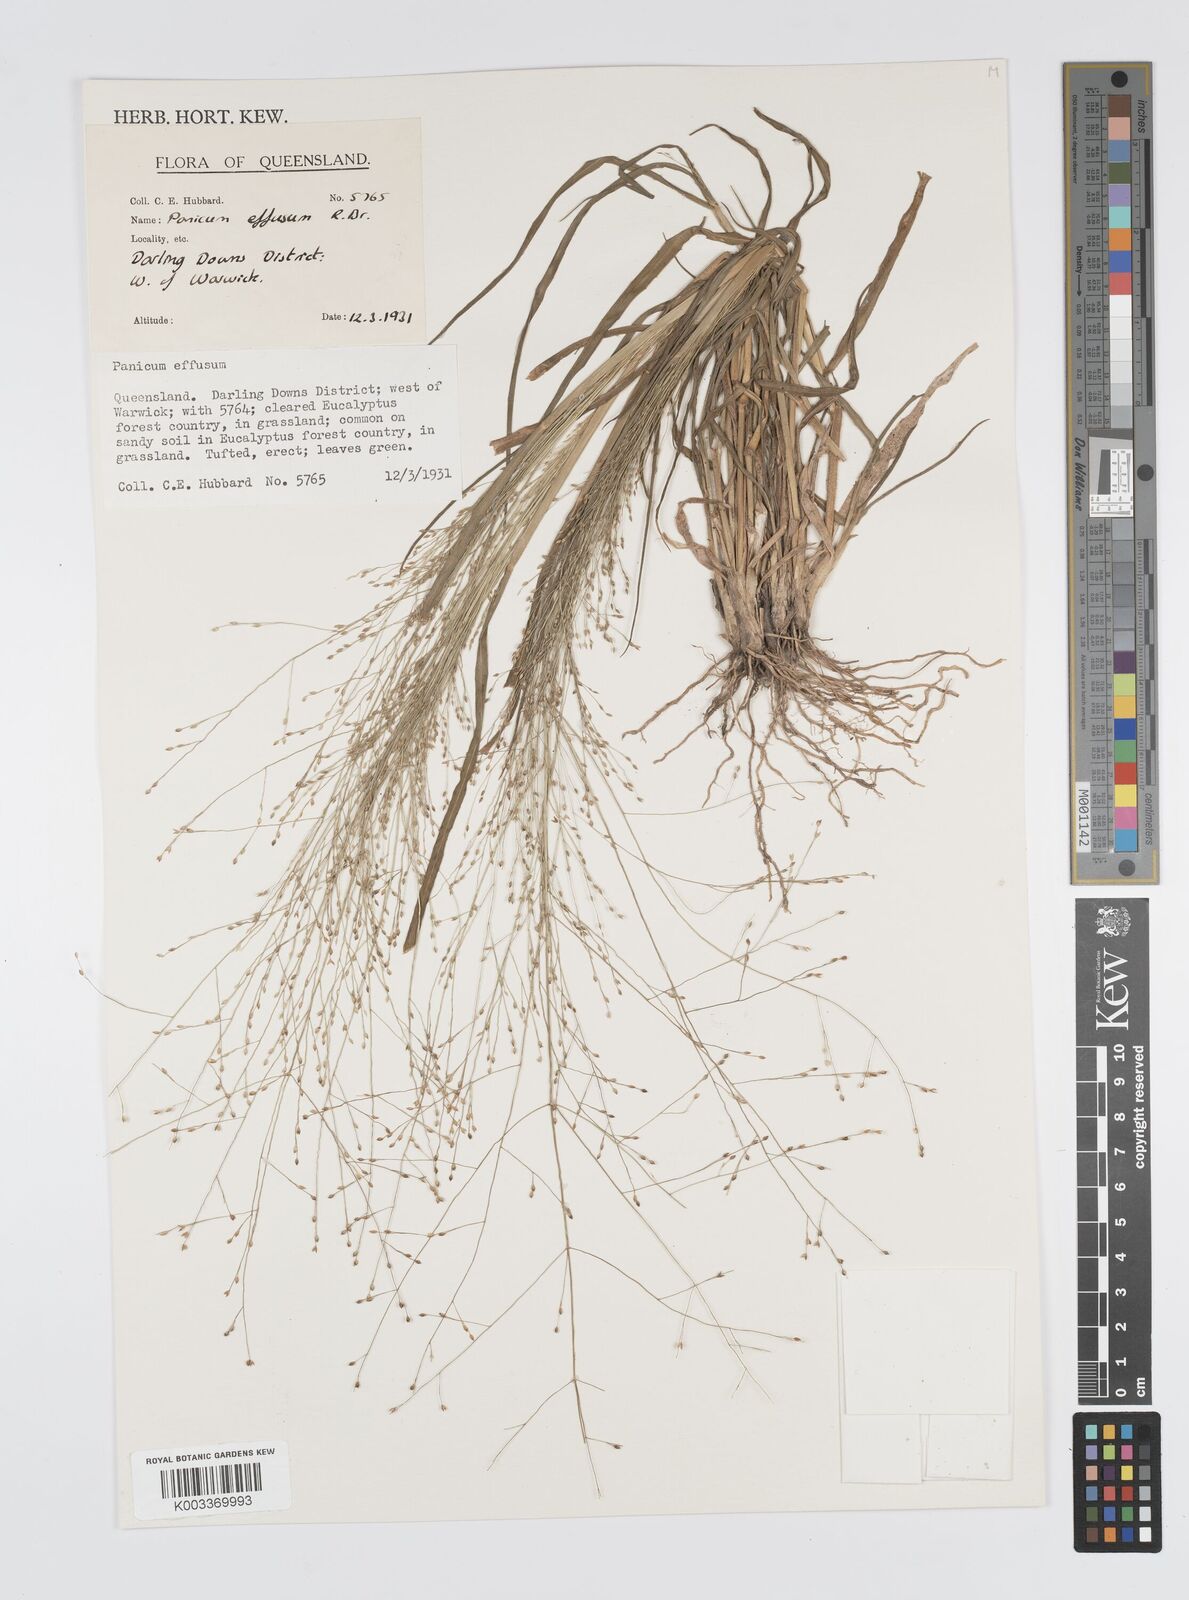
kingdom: Plantae
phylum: Tracheophyta
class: Liliopsida
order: Poales
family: Poaceae
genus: Panicum
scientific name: Panicum effusum
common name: Hairy panic grass
